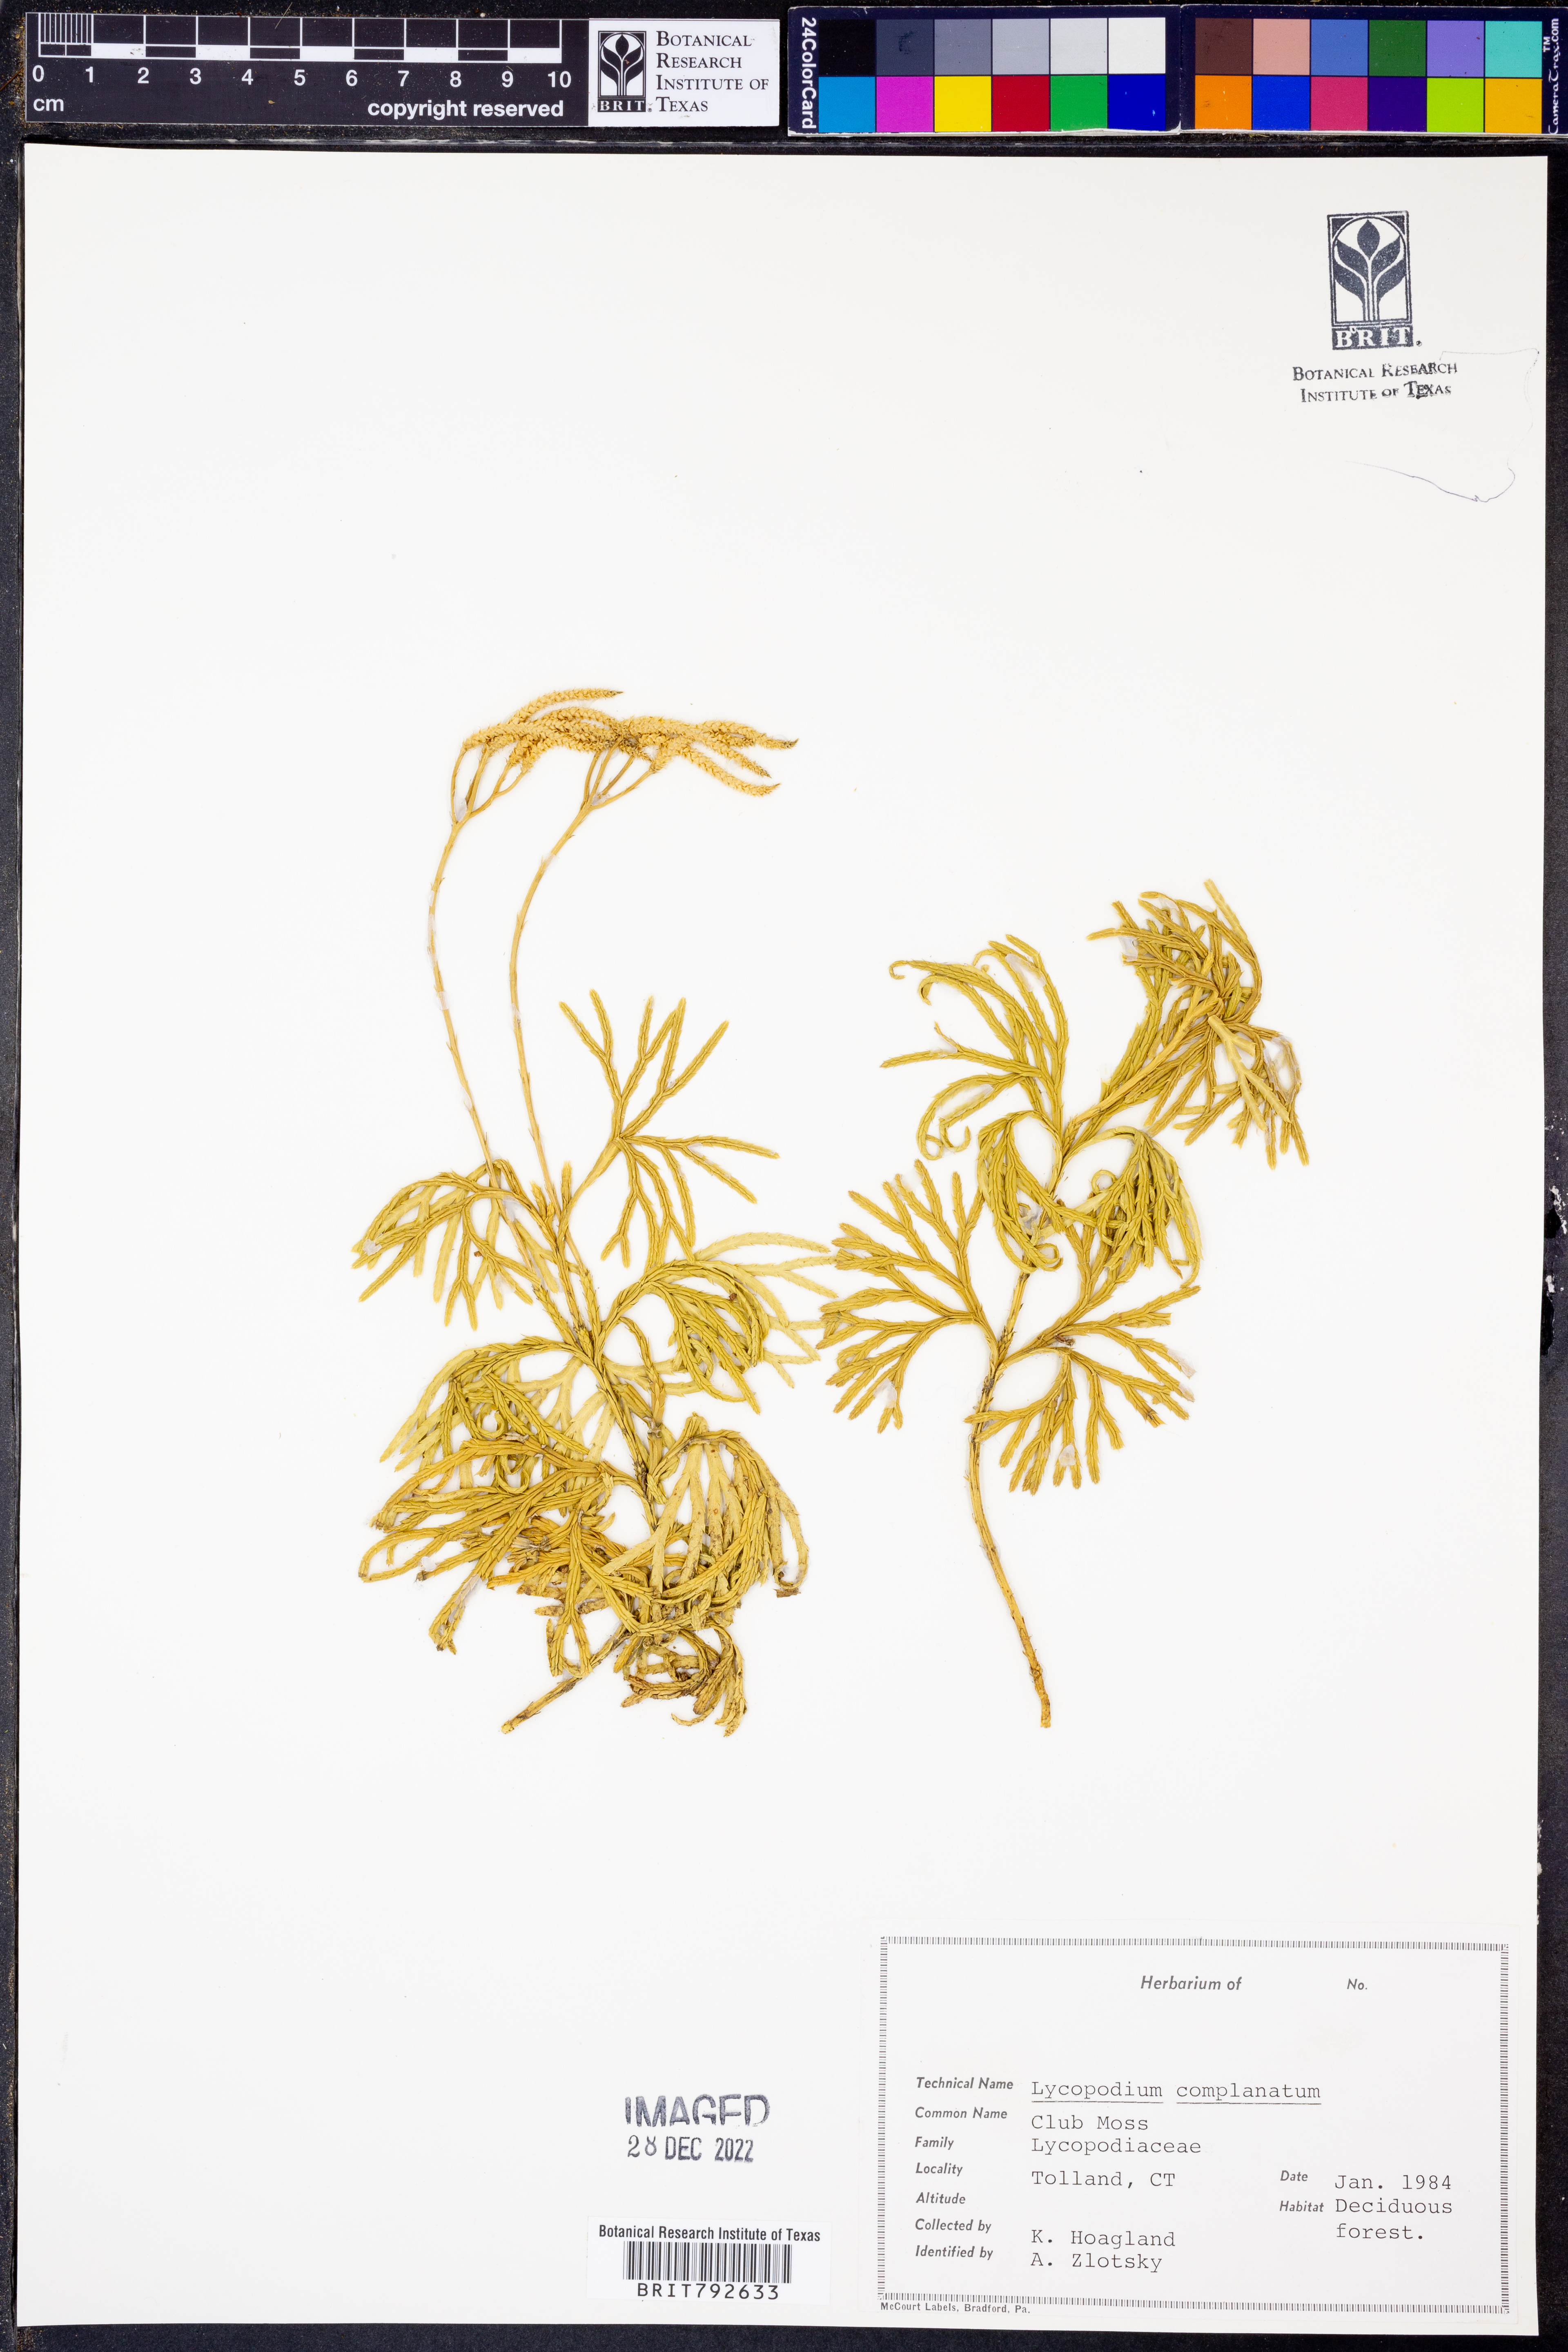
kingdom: Plantae
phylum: Tracheophyta
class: Lycopodiopsida
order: Lycopodiales
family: Lycopodiaceae
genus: Diphasiastrum
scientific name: Diphasiastrum complanatum
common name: Northern running-pine
